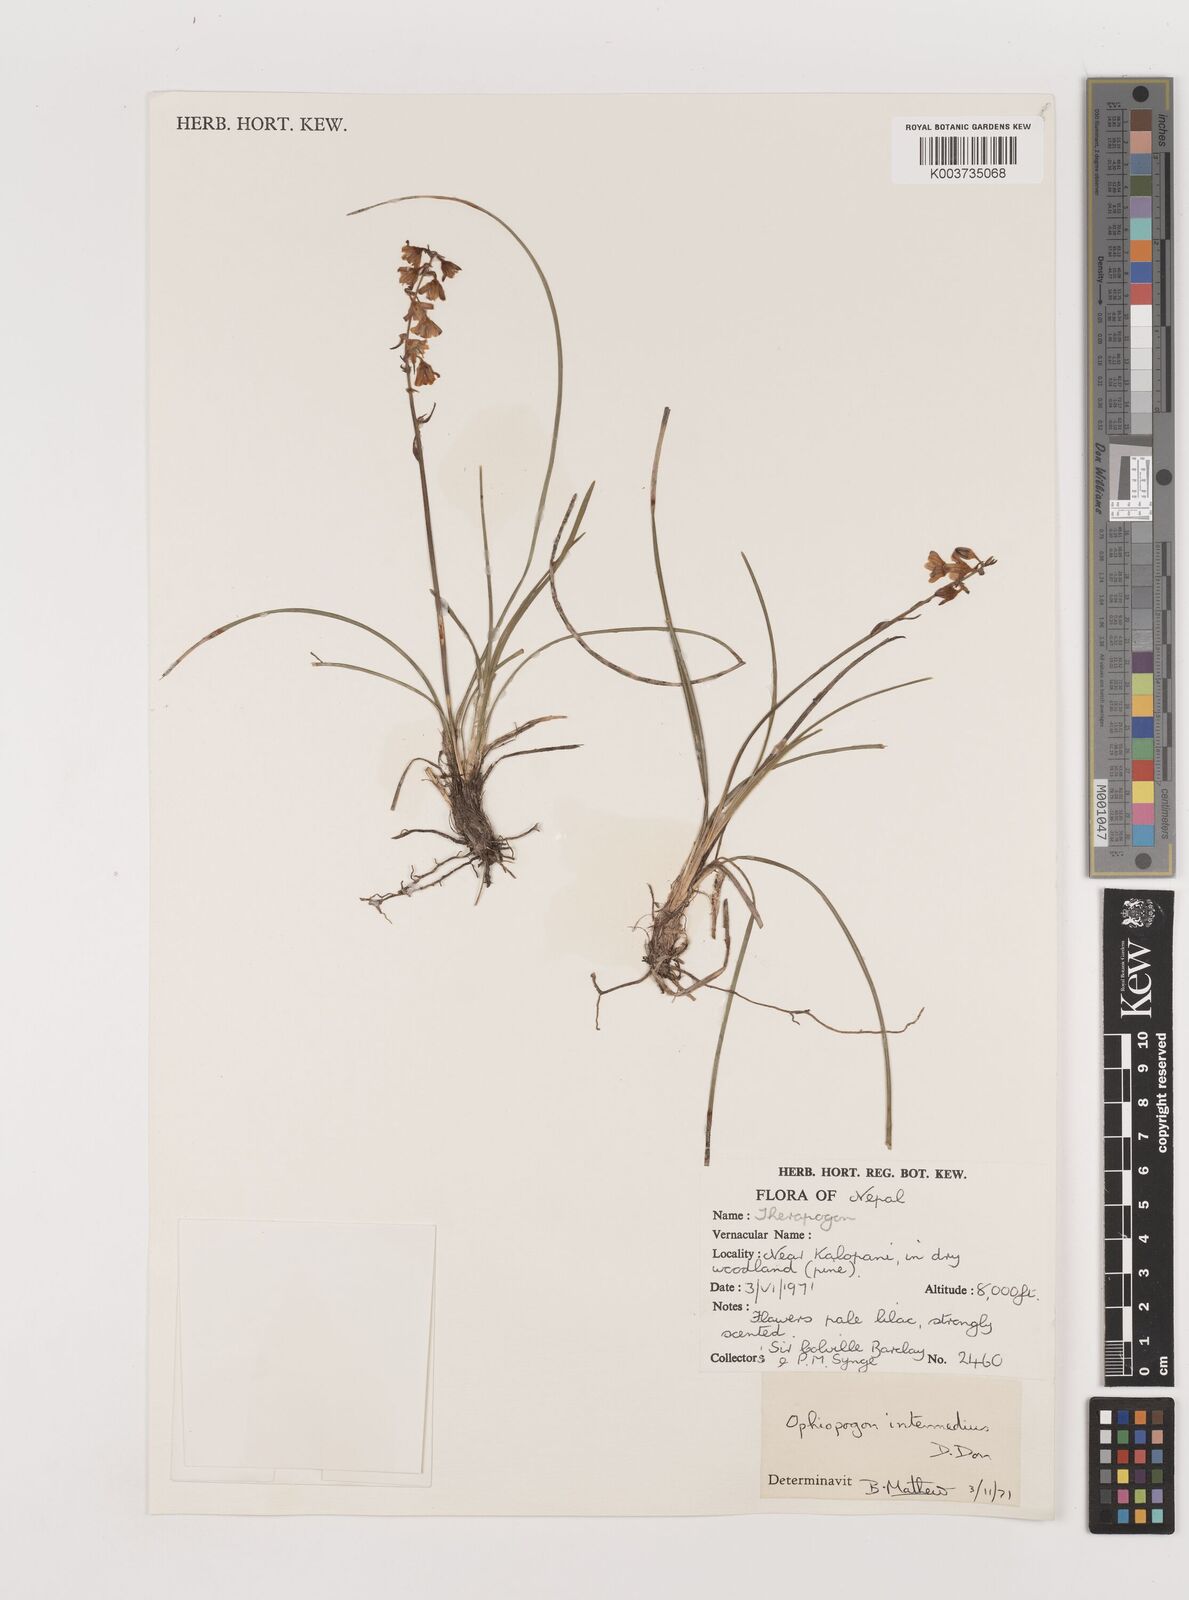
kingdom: Plantae
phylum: Tracheophyta
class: Liliopsida
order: Asparagales
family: Asparagaceae
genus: Ophiopogon
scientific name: Ophiopogon bodinieri
